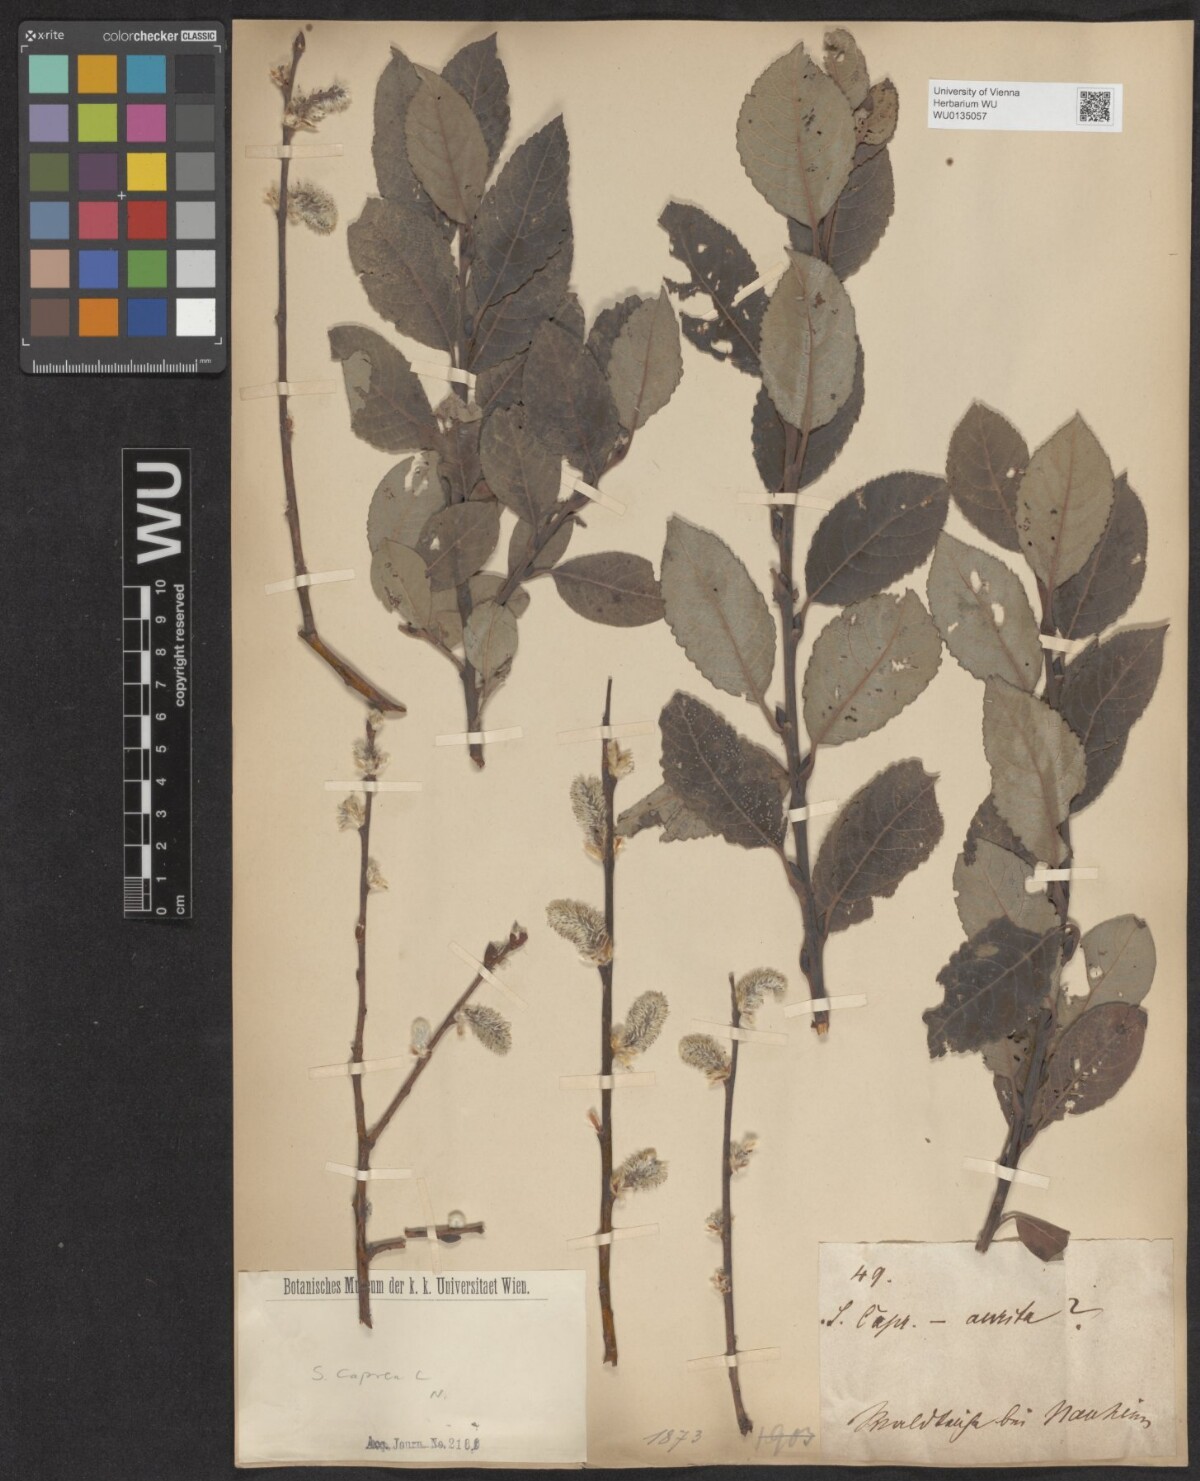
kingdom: Plantae
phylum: Tracheophyta
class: Magnoliopsida
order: Malpighiales
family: Salicaceae
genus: Salix
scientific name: Salix caprea
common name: Goat willow
